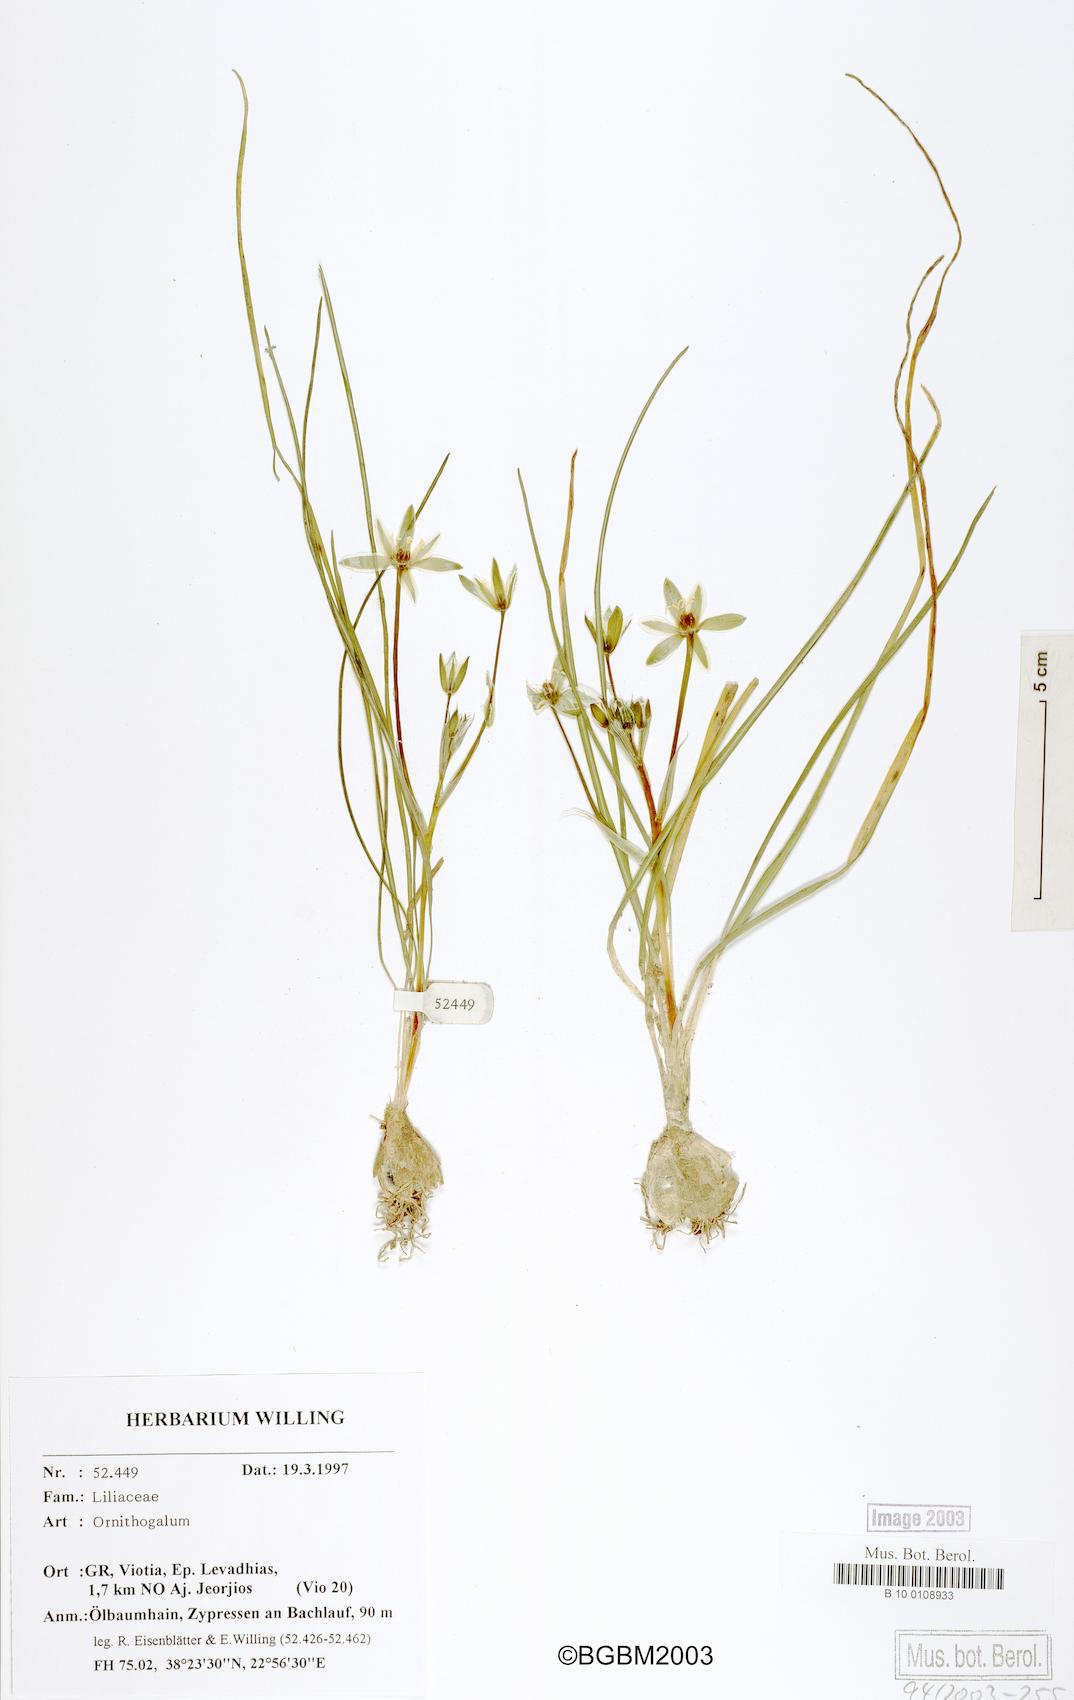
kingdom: Plantae
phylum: Tracheophyta
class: Liliopsida
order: Asparagales
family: Asparagaceae
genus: Ornithogalum
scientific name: Ornithogalum
